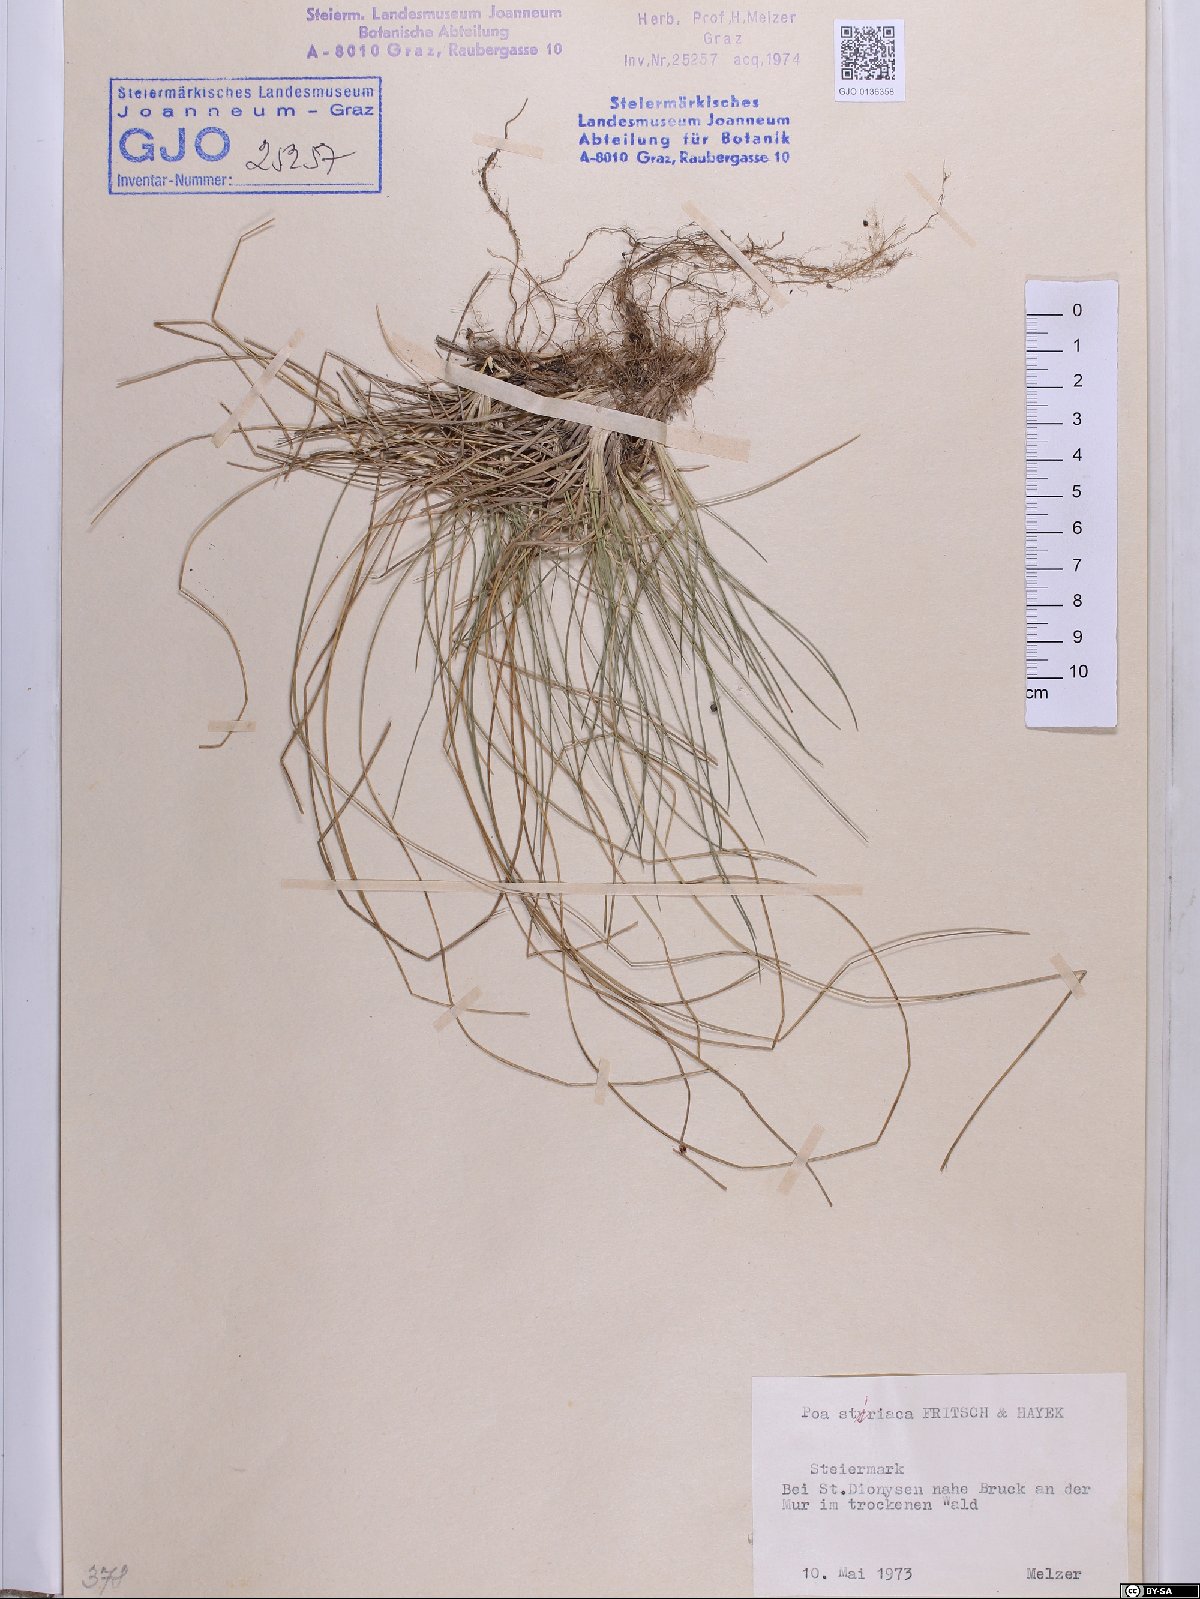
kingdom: Plantae
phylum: Tracheophyta
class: Liliopsida
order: Poales
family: Poaceae
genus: Poa
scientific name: Poa stiriaca
